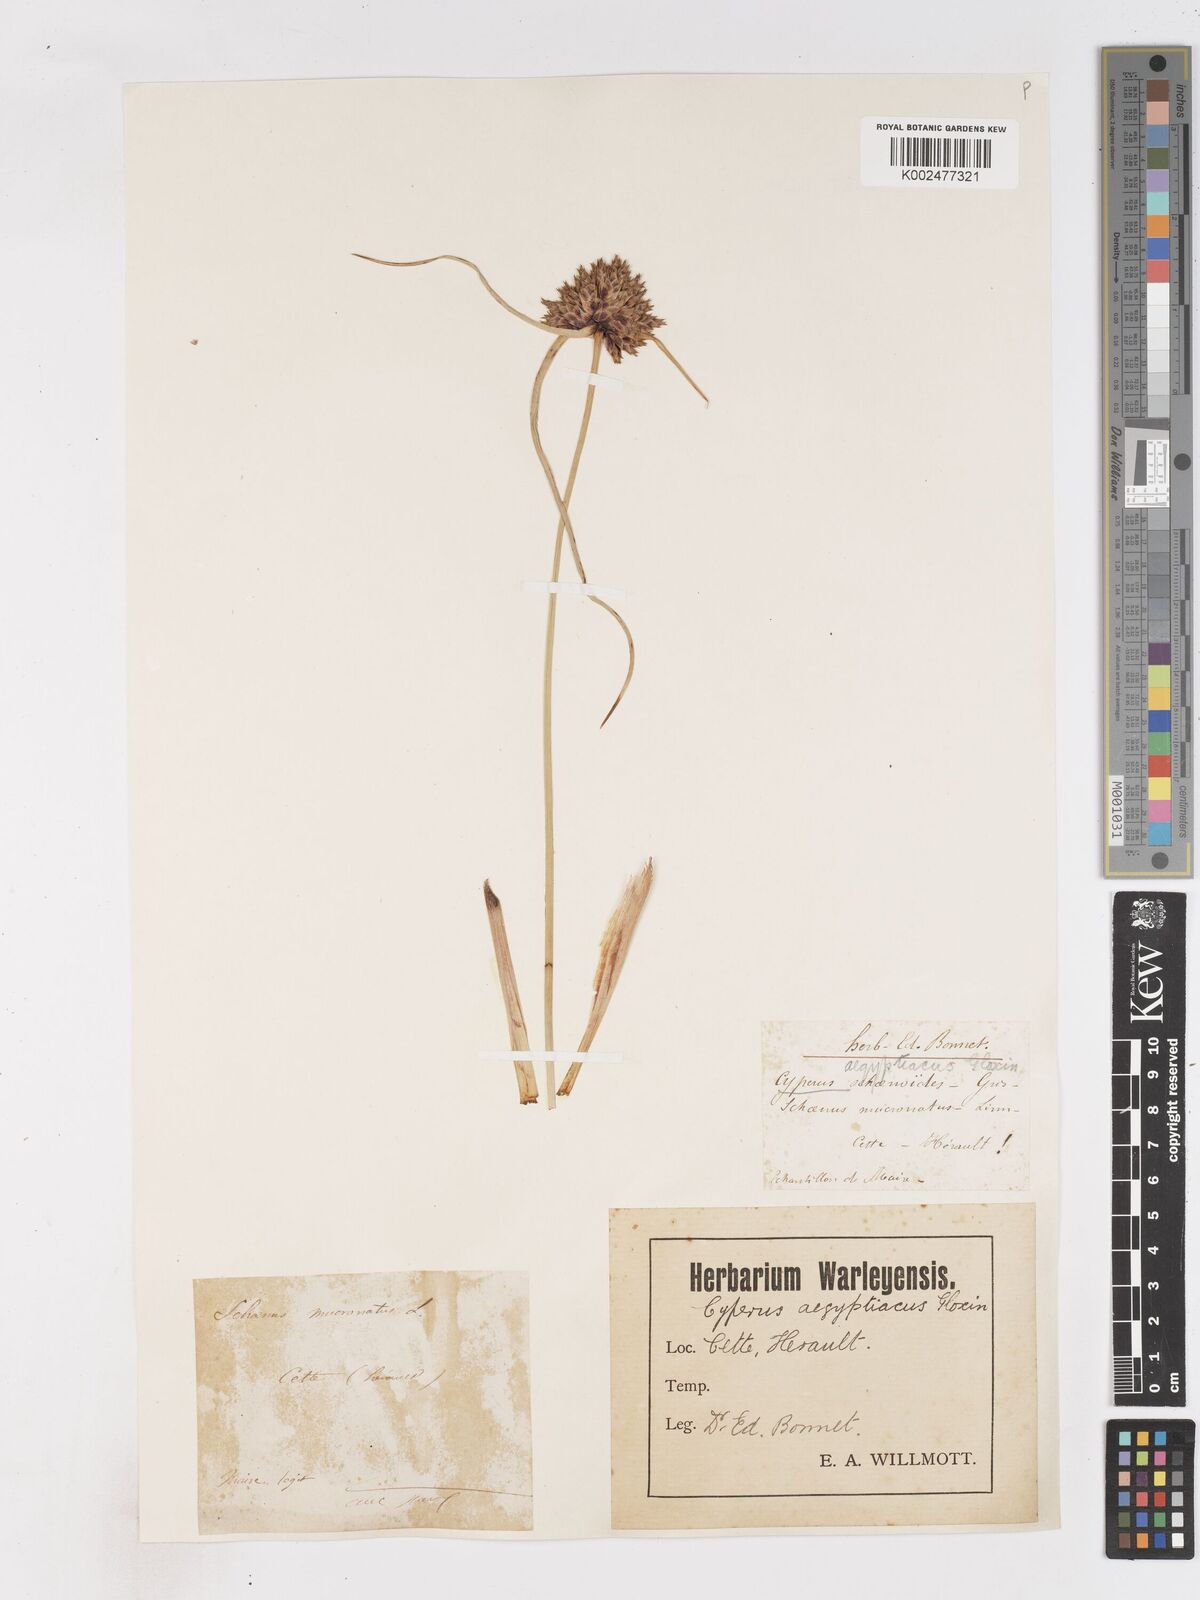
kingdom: Plantae
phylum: Tracheophyta
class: Liliopsida
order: Poales
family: Cyperaceae
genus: Cyperus
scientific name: Cyperus capitatus
